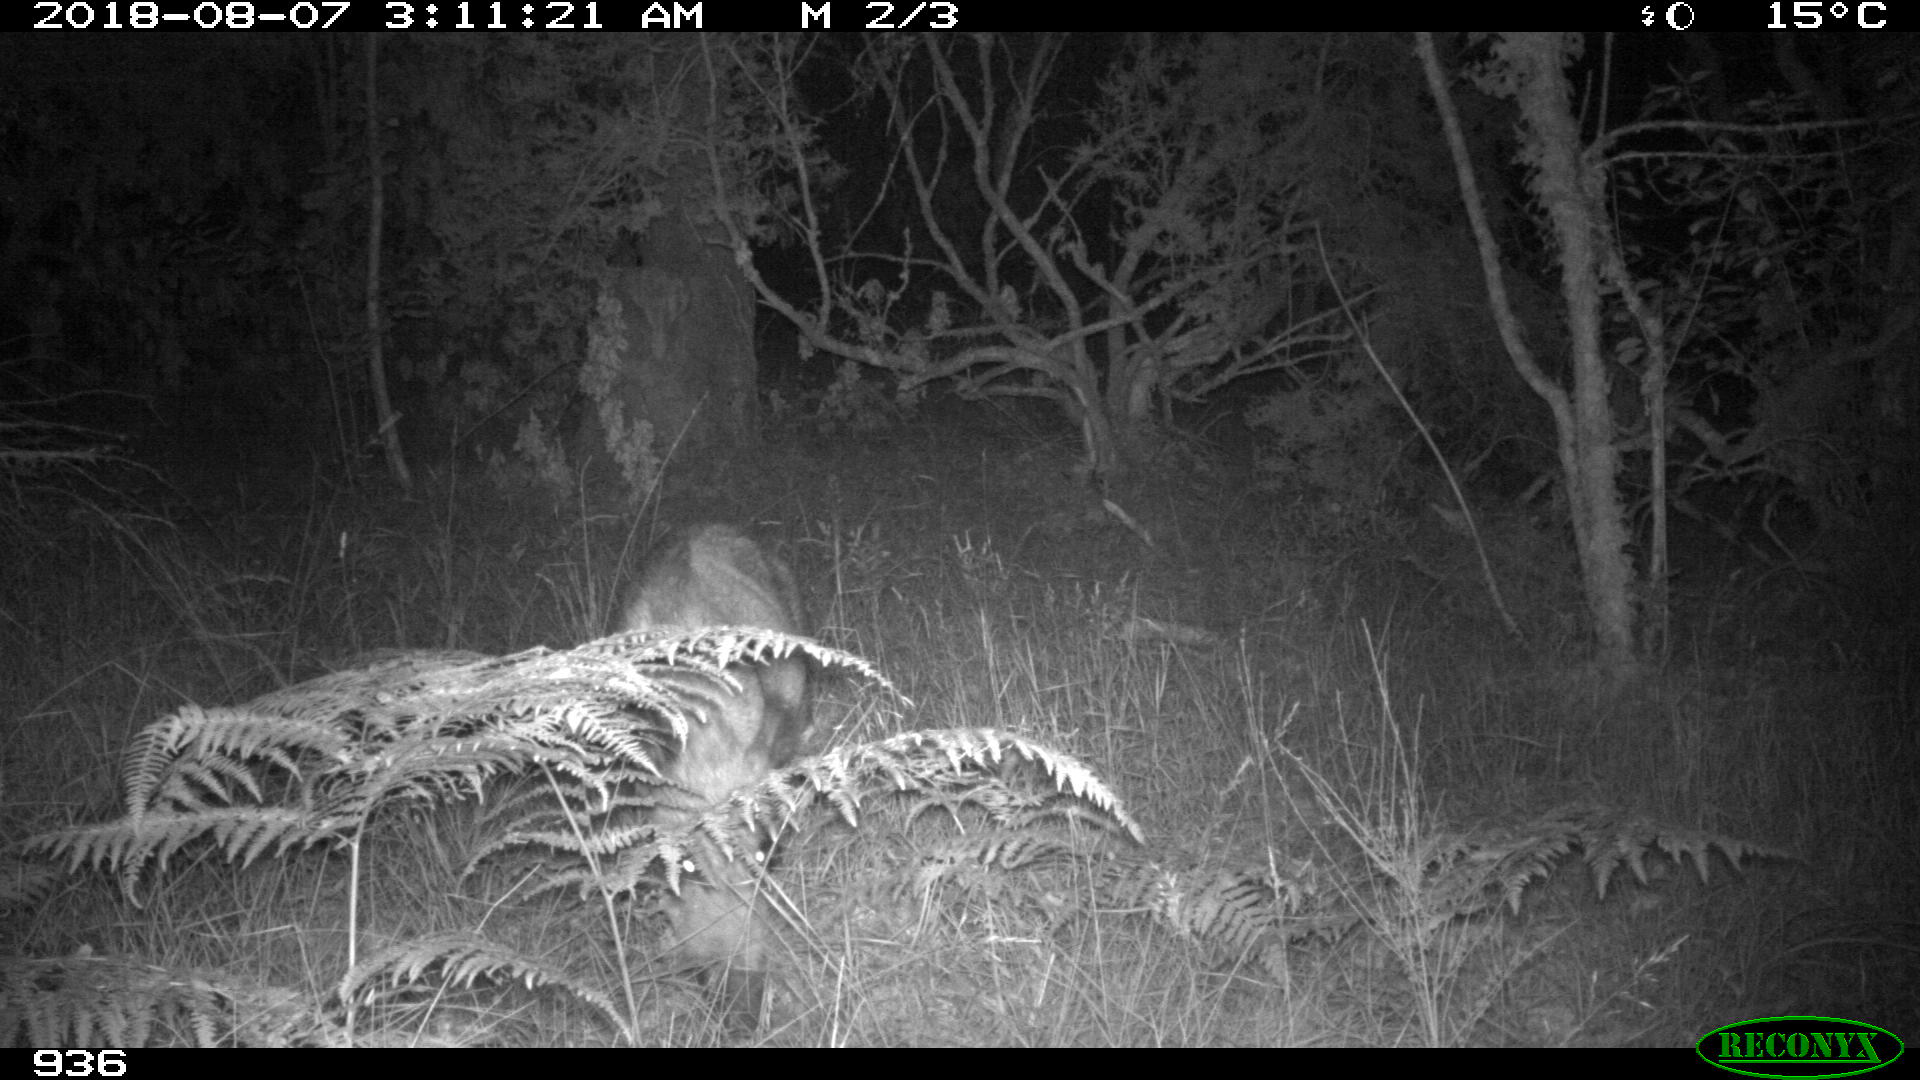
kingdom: Animalia
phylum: Chordata
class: Mammalia
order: Artiodactyla
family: Suidae
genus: Sus
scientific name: Sus scrofa
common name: Wild boar
